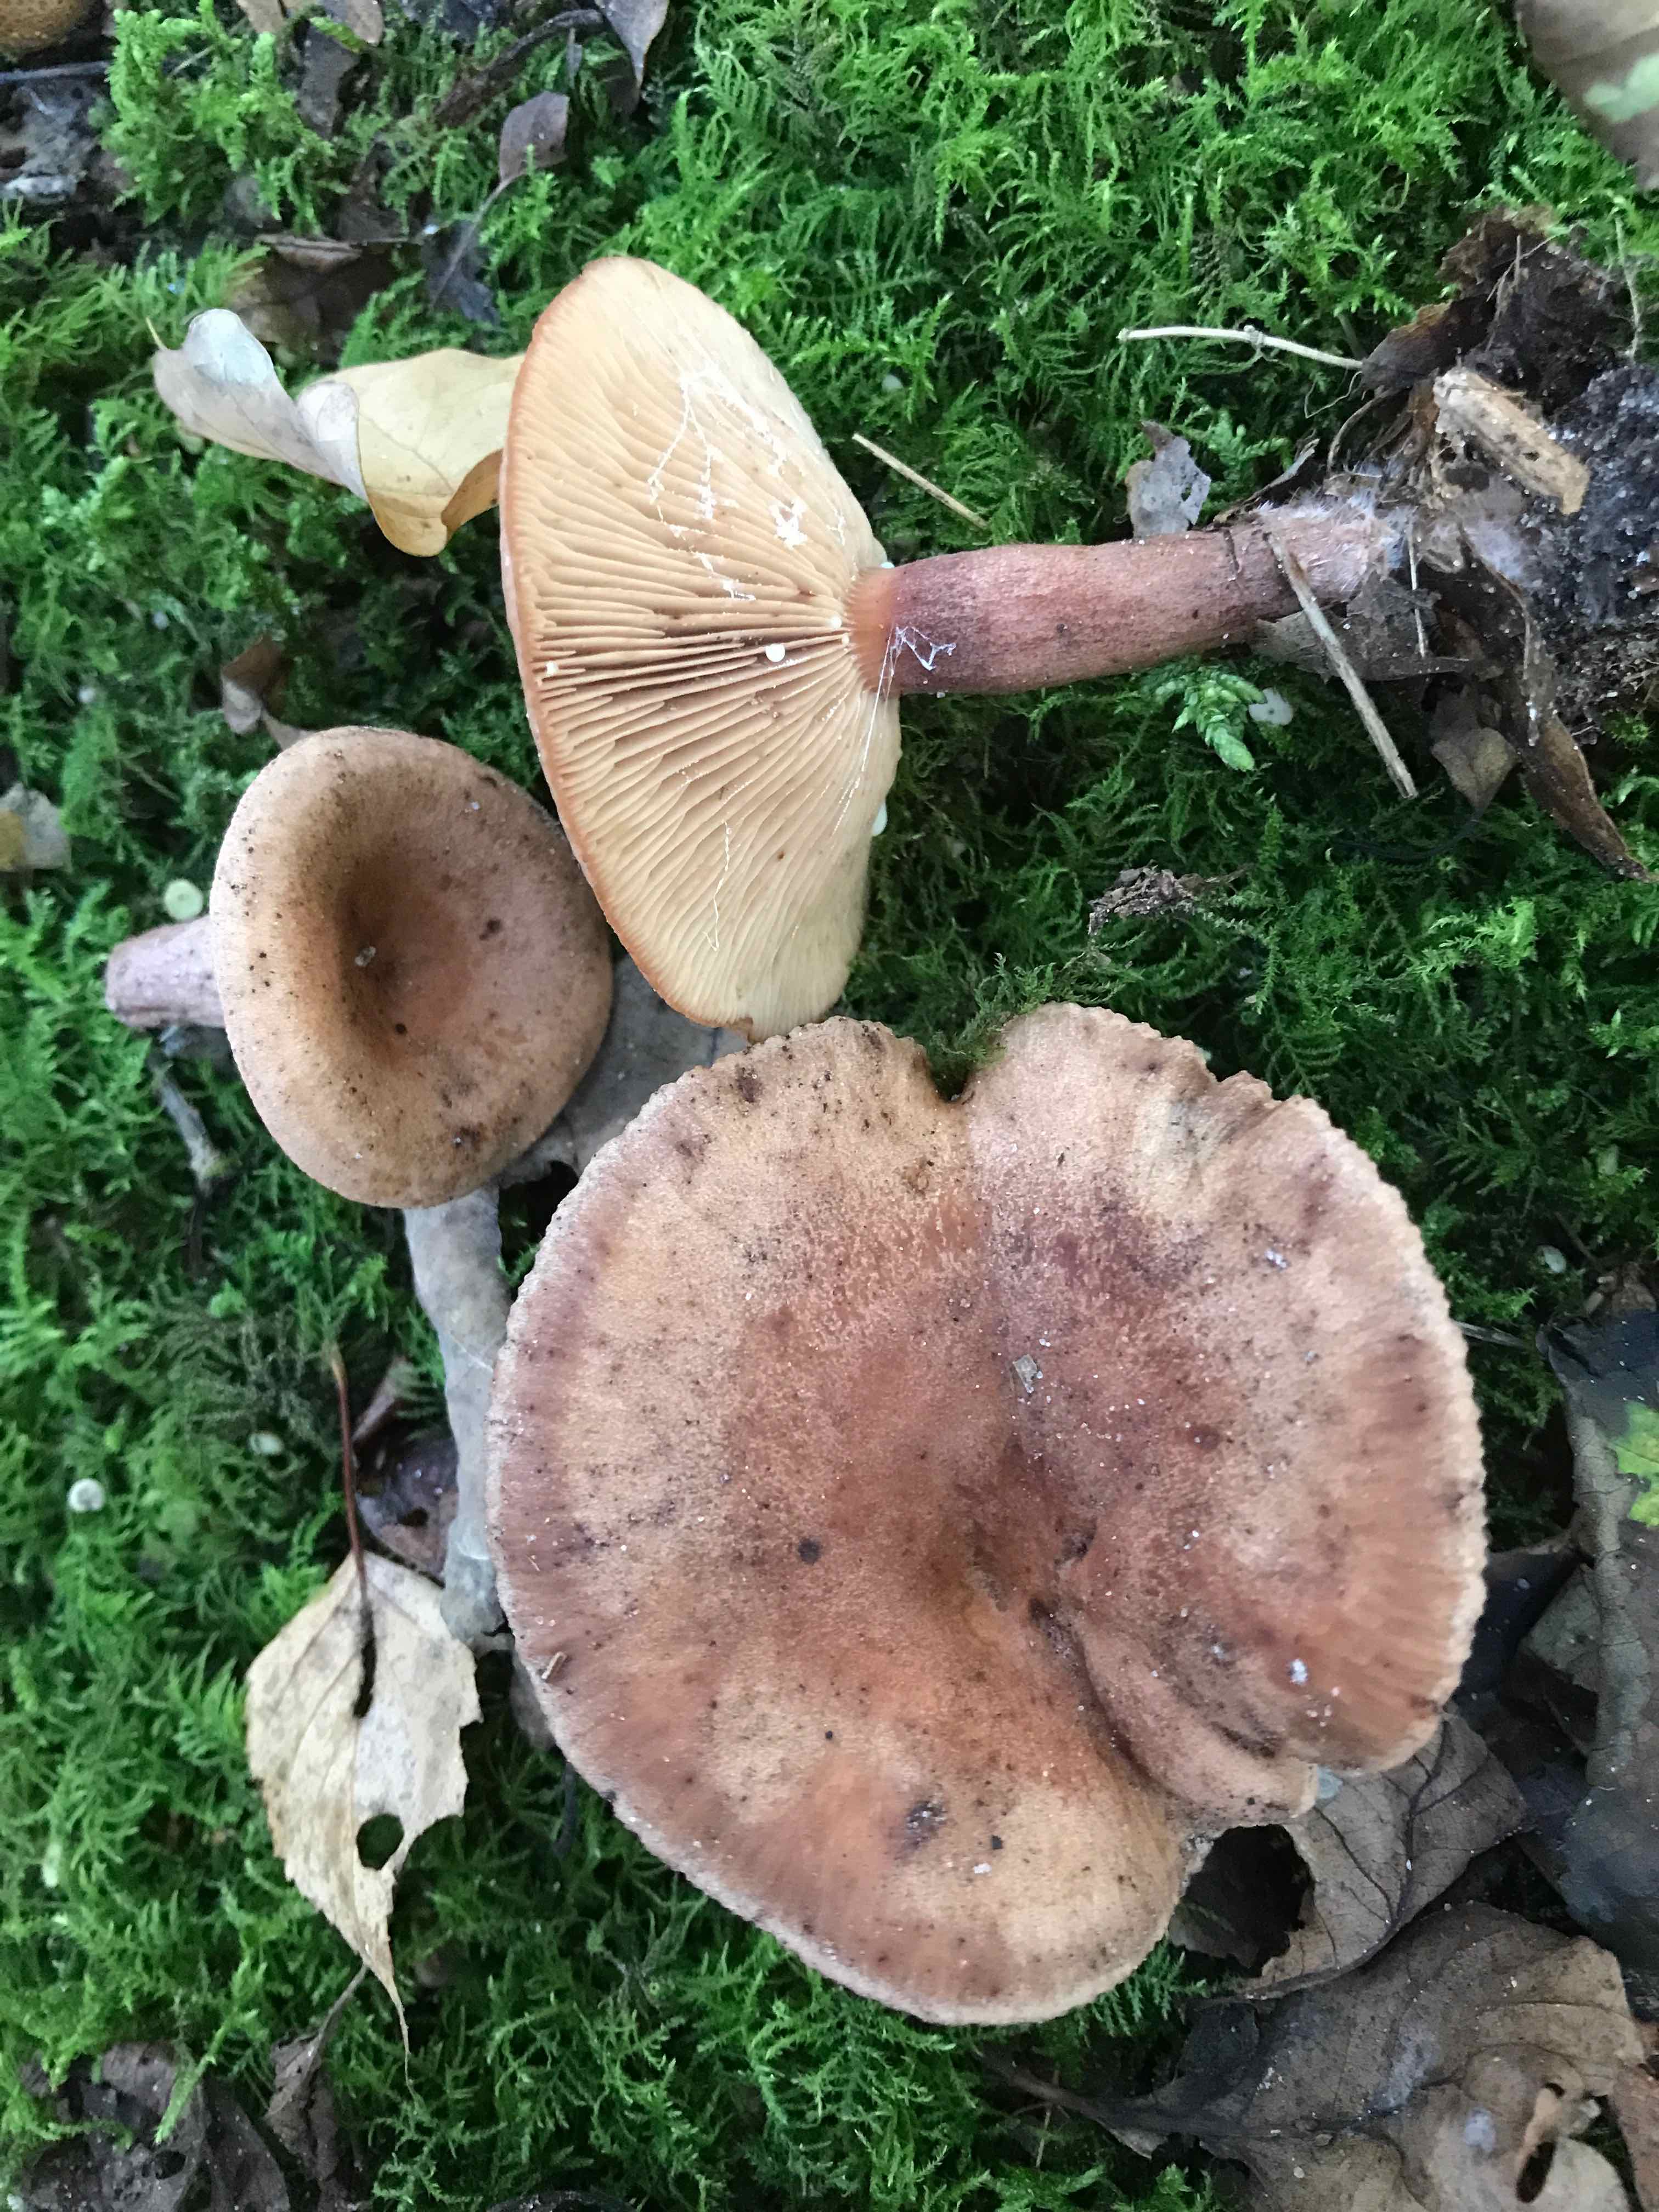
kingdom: Fungi
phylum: Basidiomycota
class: Agaricomycetes
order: Russulales
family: Russulaceae
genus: Lactarius
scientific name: Lactarius quietus
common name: ege-mælkehat
